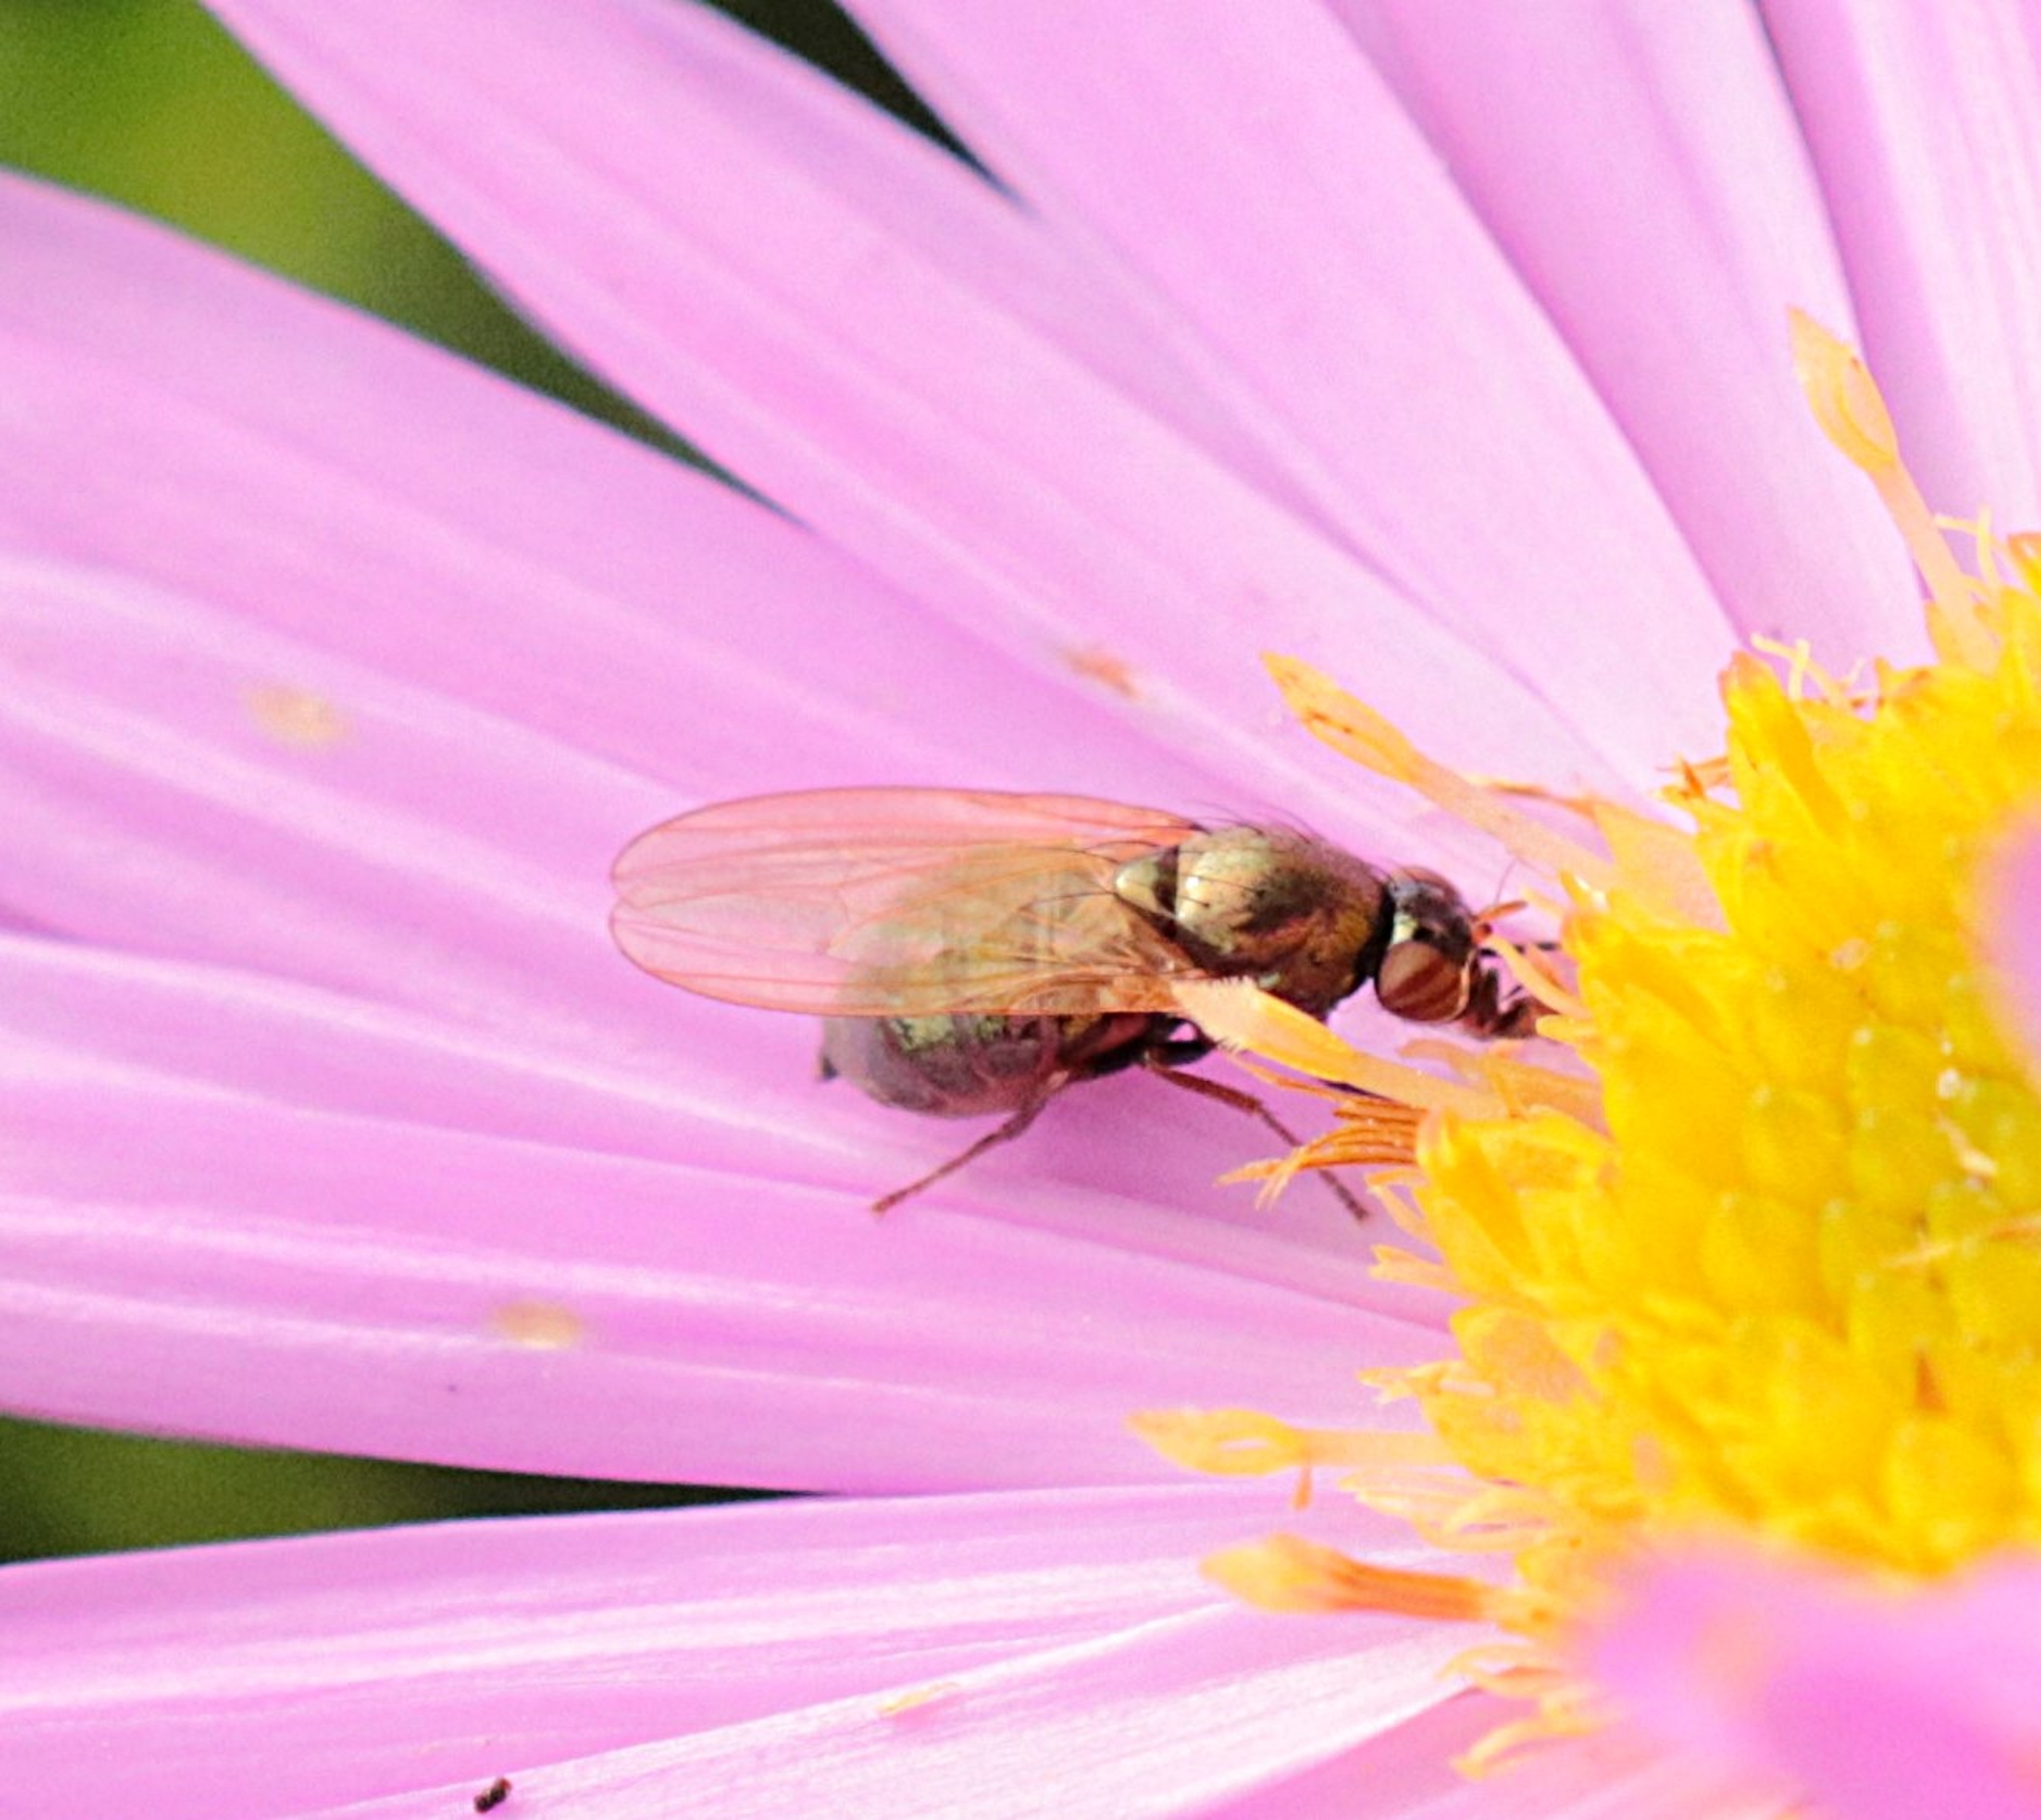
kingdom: Animalia
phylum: Arthropoda
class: Insecta
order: Diptera
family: Lauxaniidae
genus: Calliopum
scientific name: Calliopum
